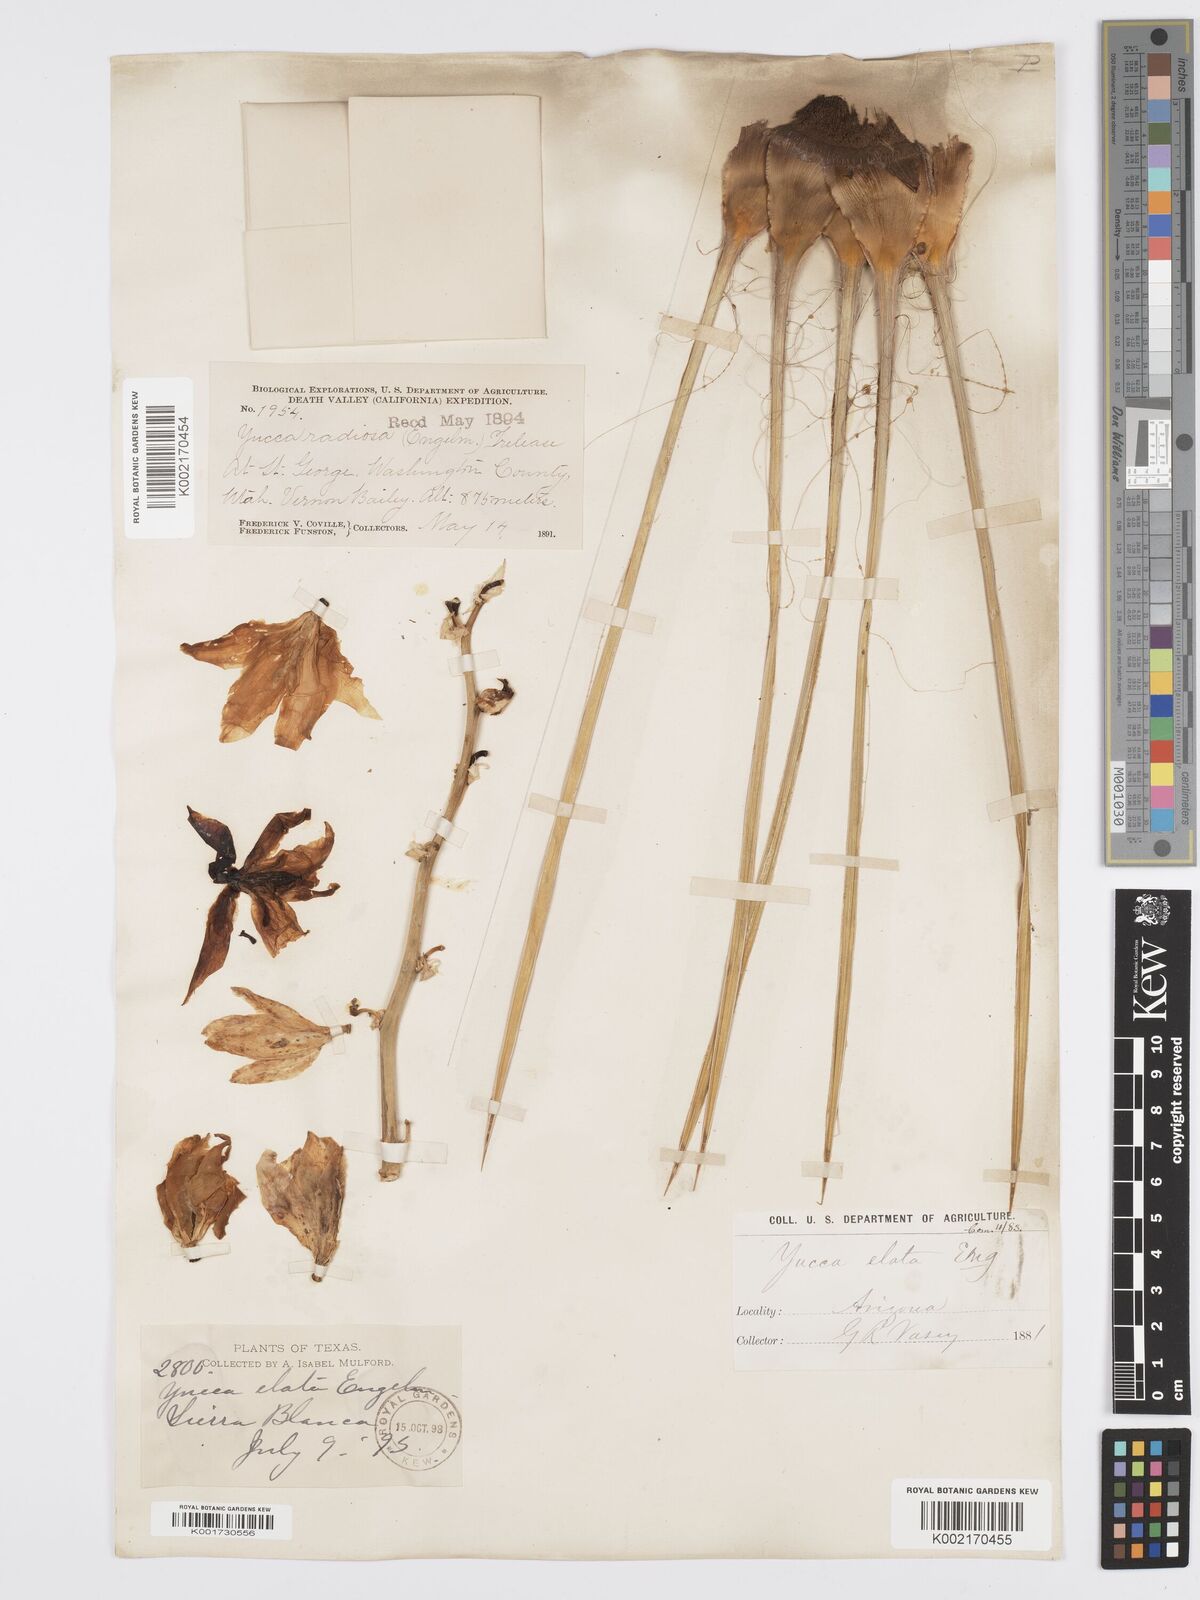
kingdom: Plantae
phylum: Tracheophyta
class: Liliopsida
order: Asparagales
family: Asparagaceae
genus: Yucca
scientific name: Yucca elata
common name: Palmella
